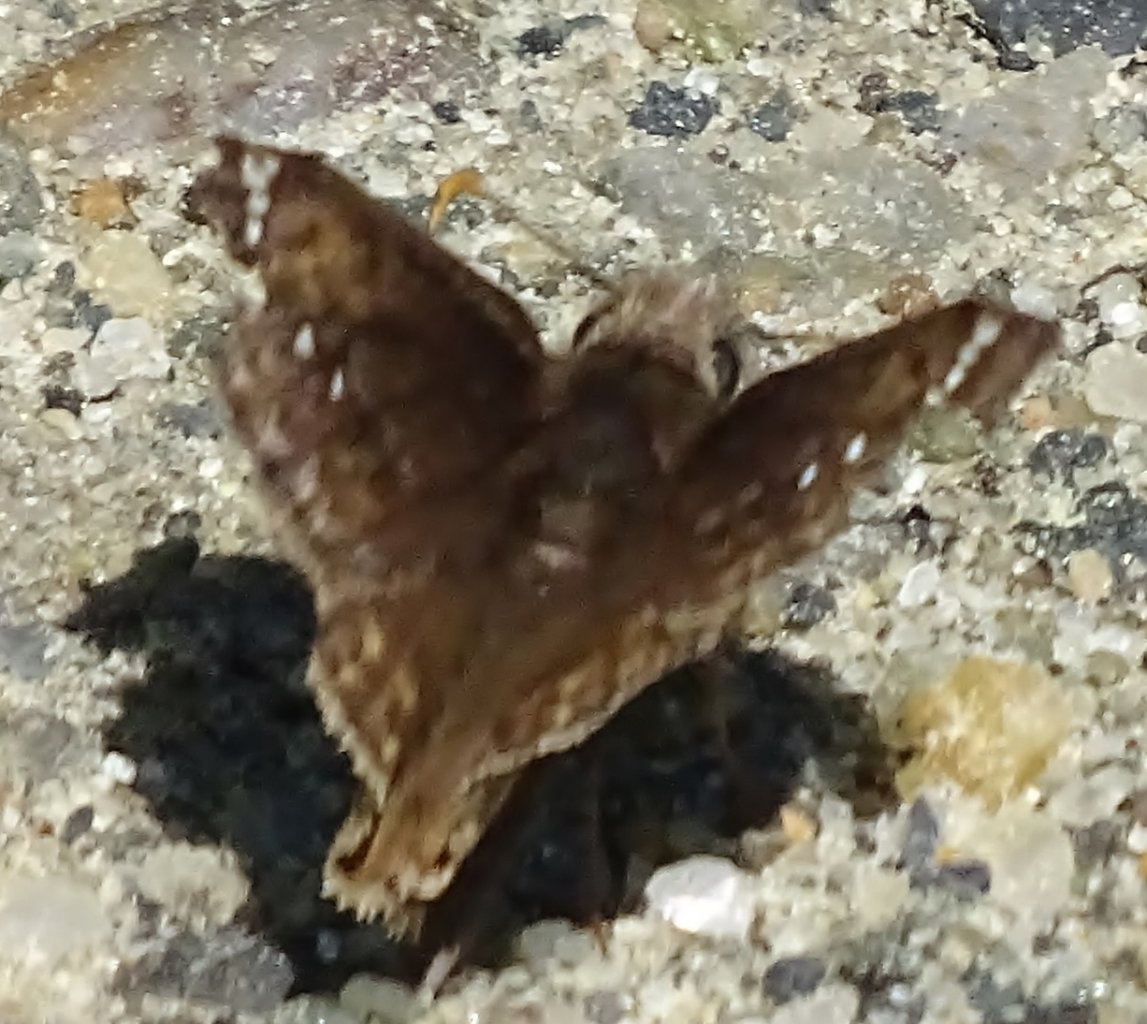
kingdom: Animalia
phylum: Arthropoda
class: Insecta
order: Lepidoptera
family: Hesperiidae
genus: Erynnis
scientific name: Erynnis
